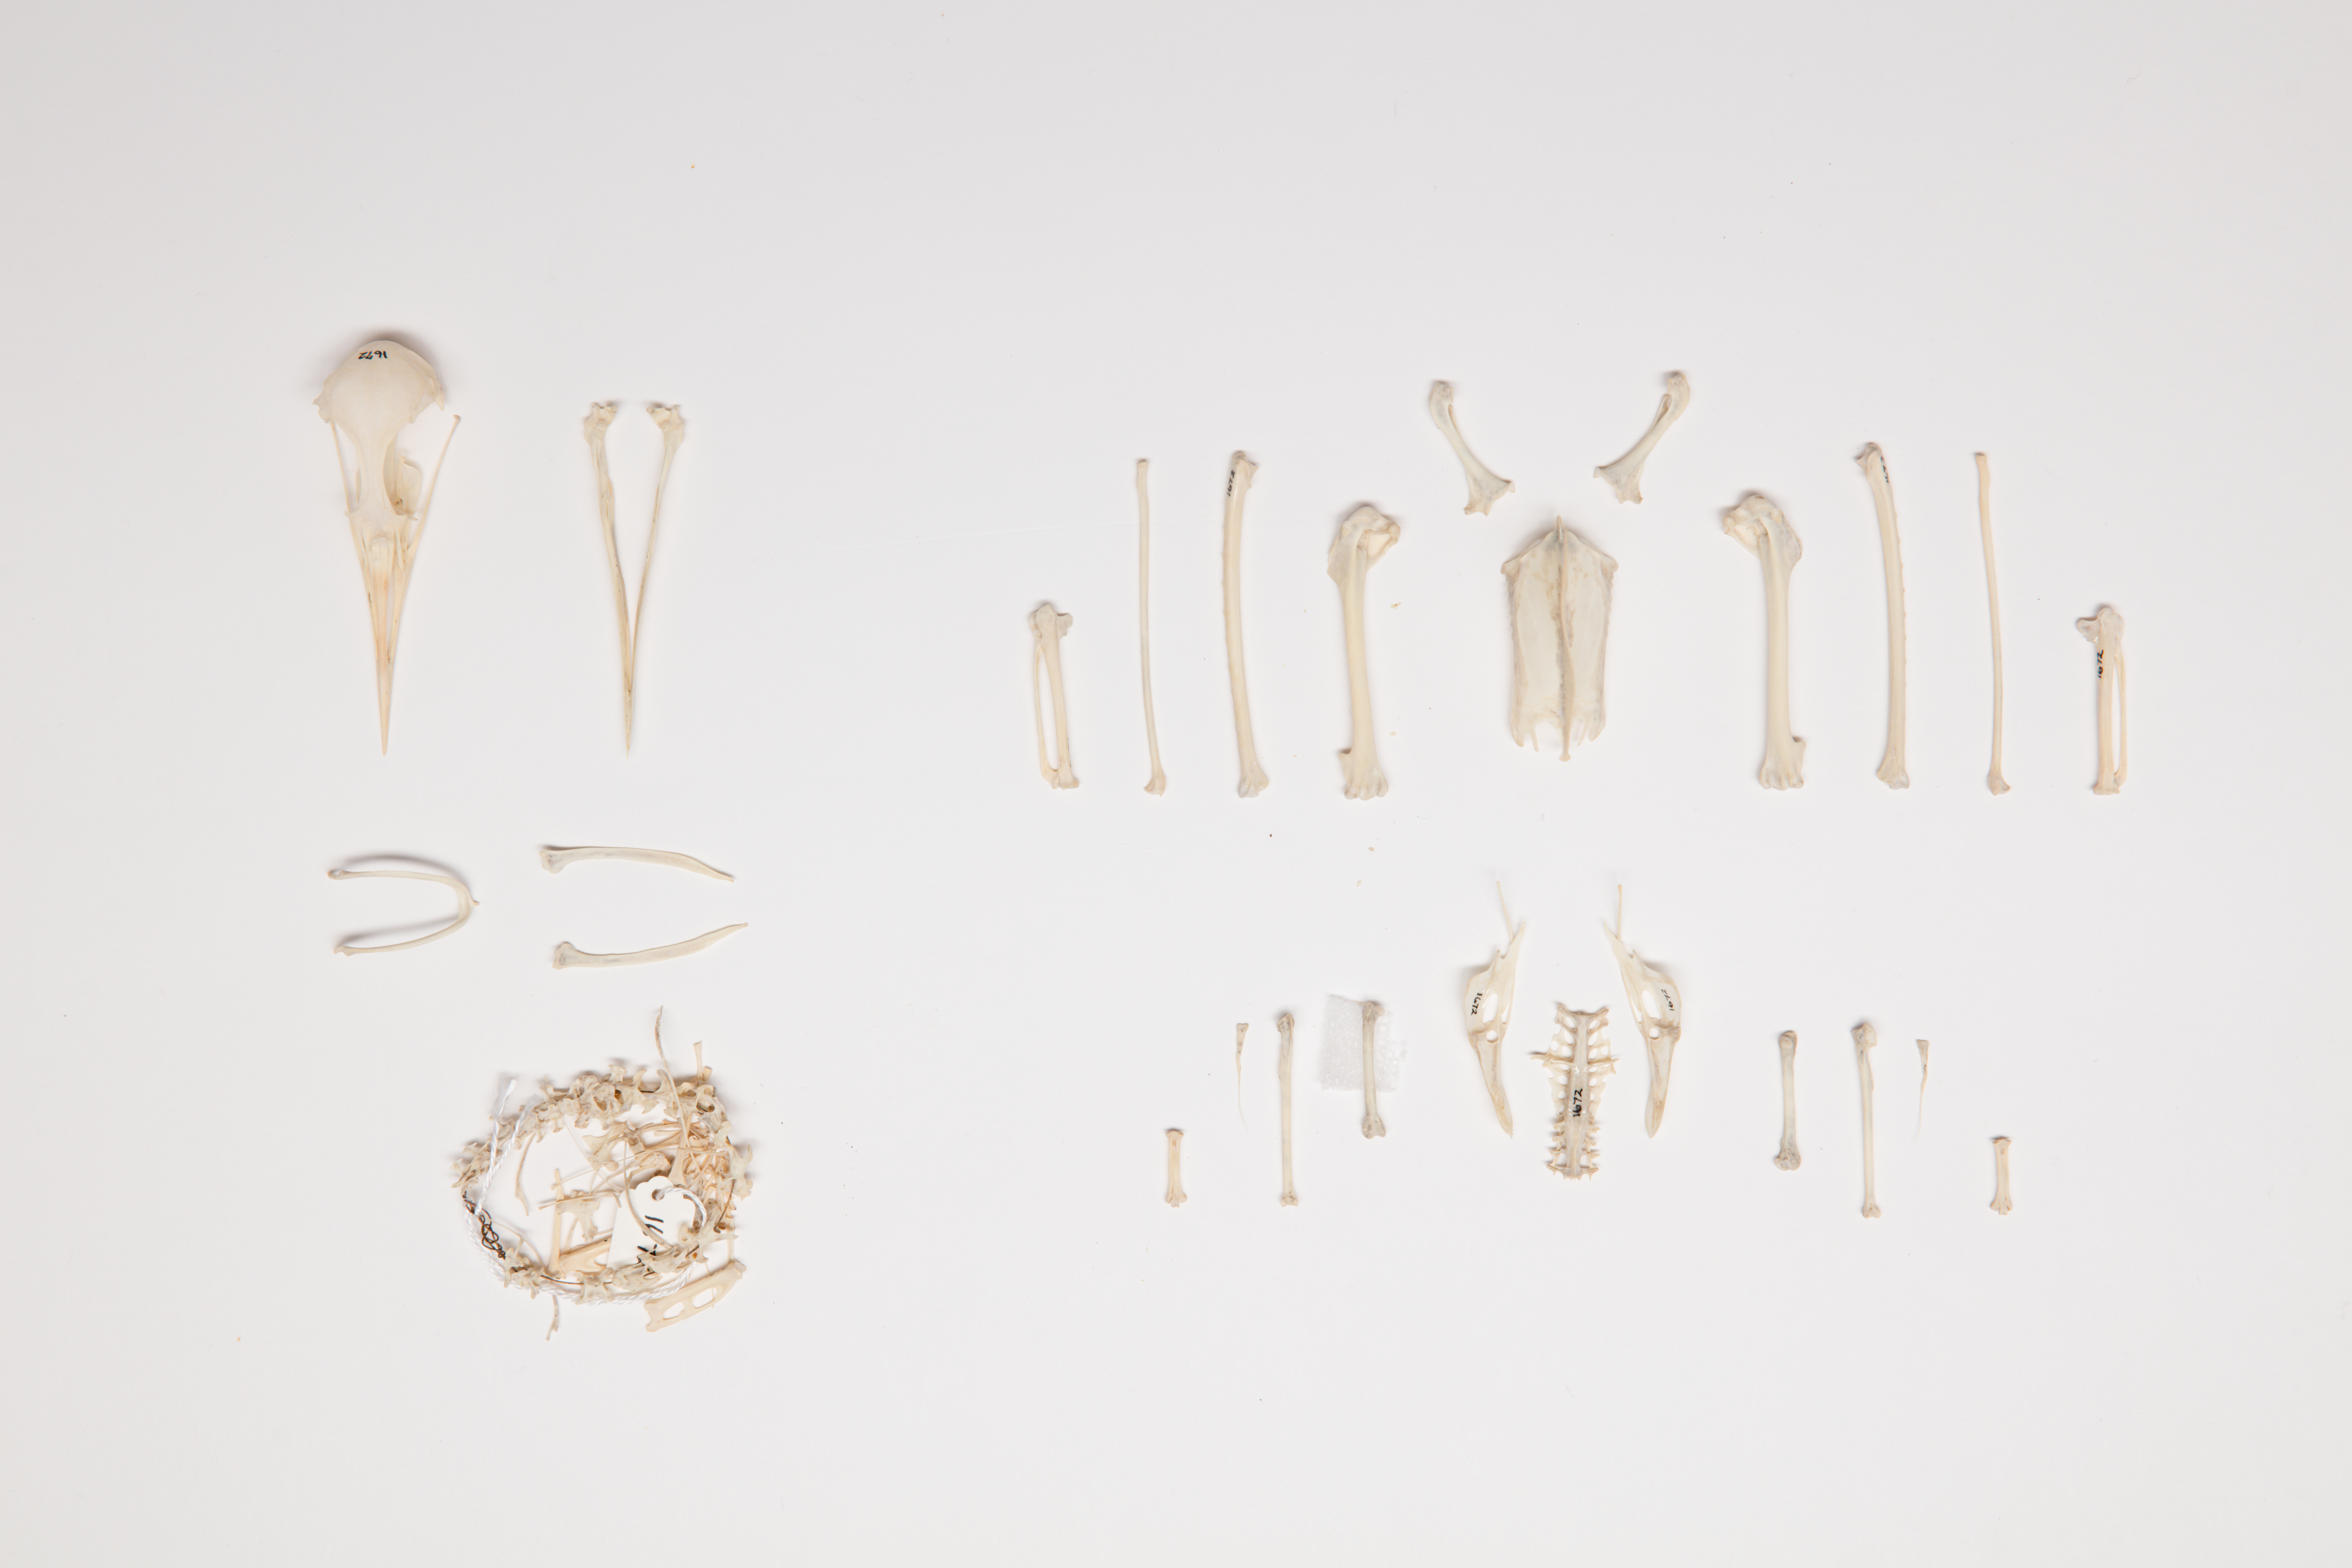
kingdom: Animalia
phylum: Chordata
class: Aves
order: Charadriiformes
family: Laridae
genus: Gygis
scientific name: Gygis alba
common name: White tern
